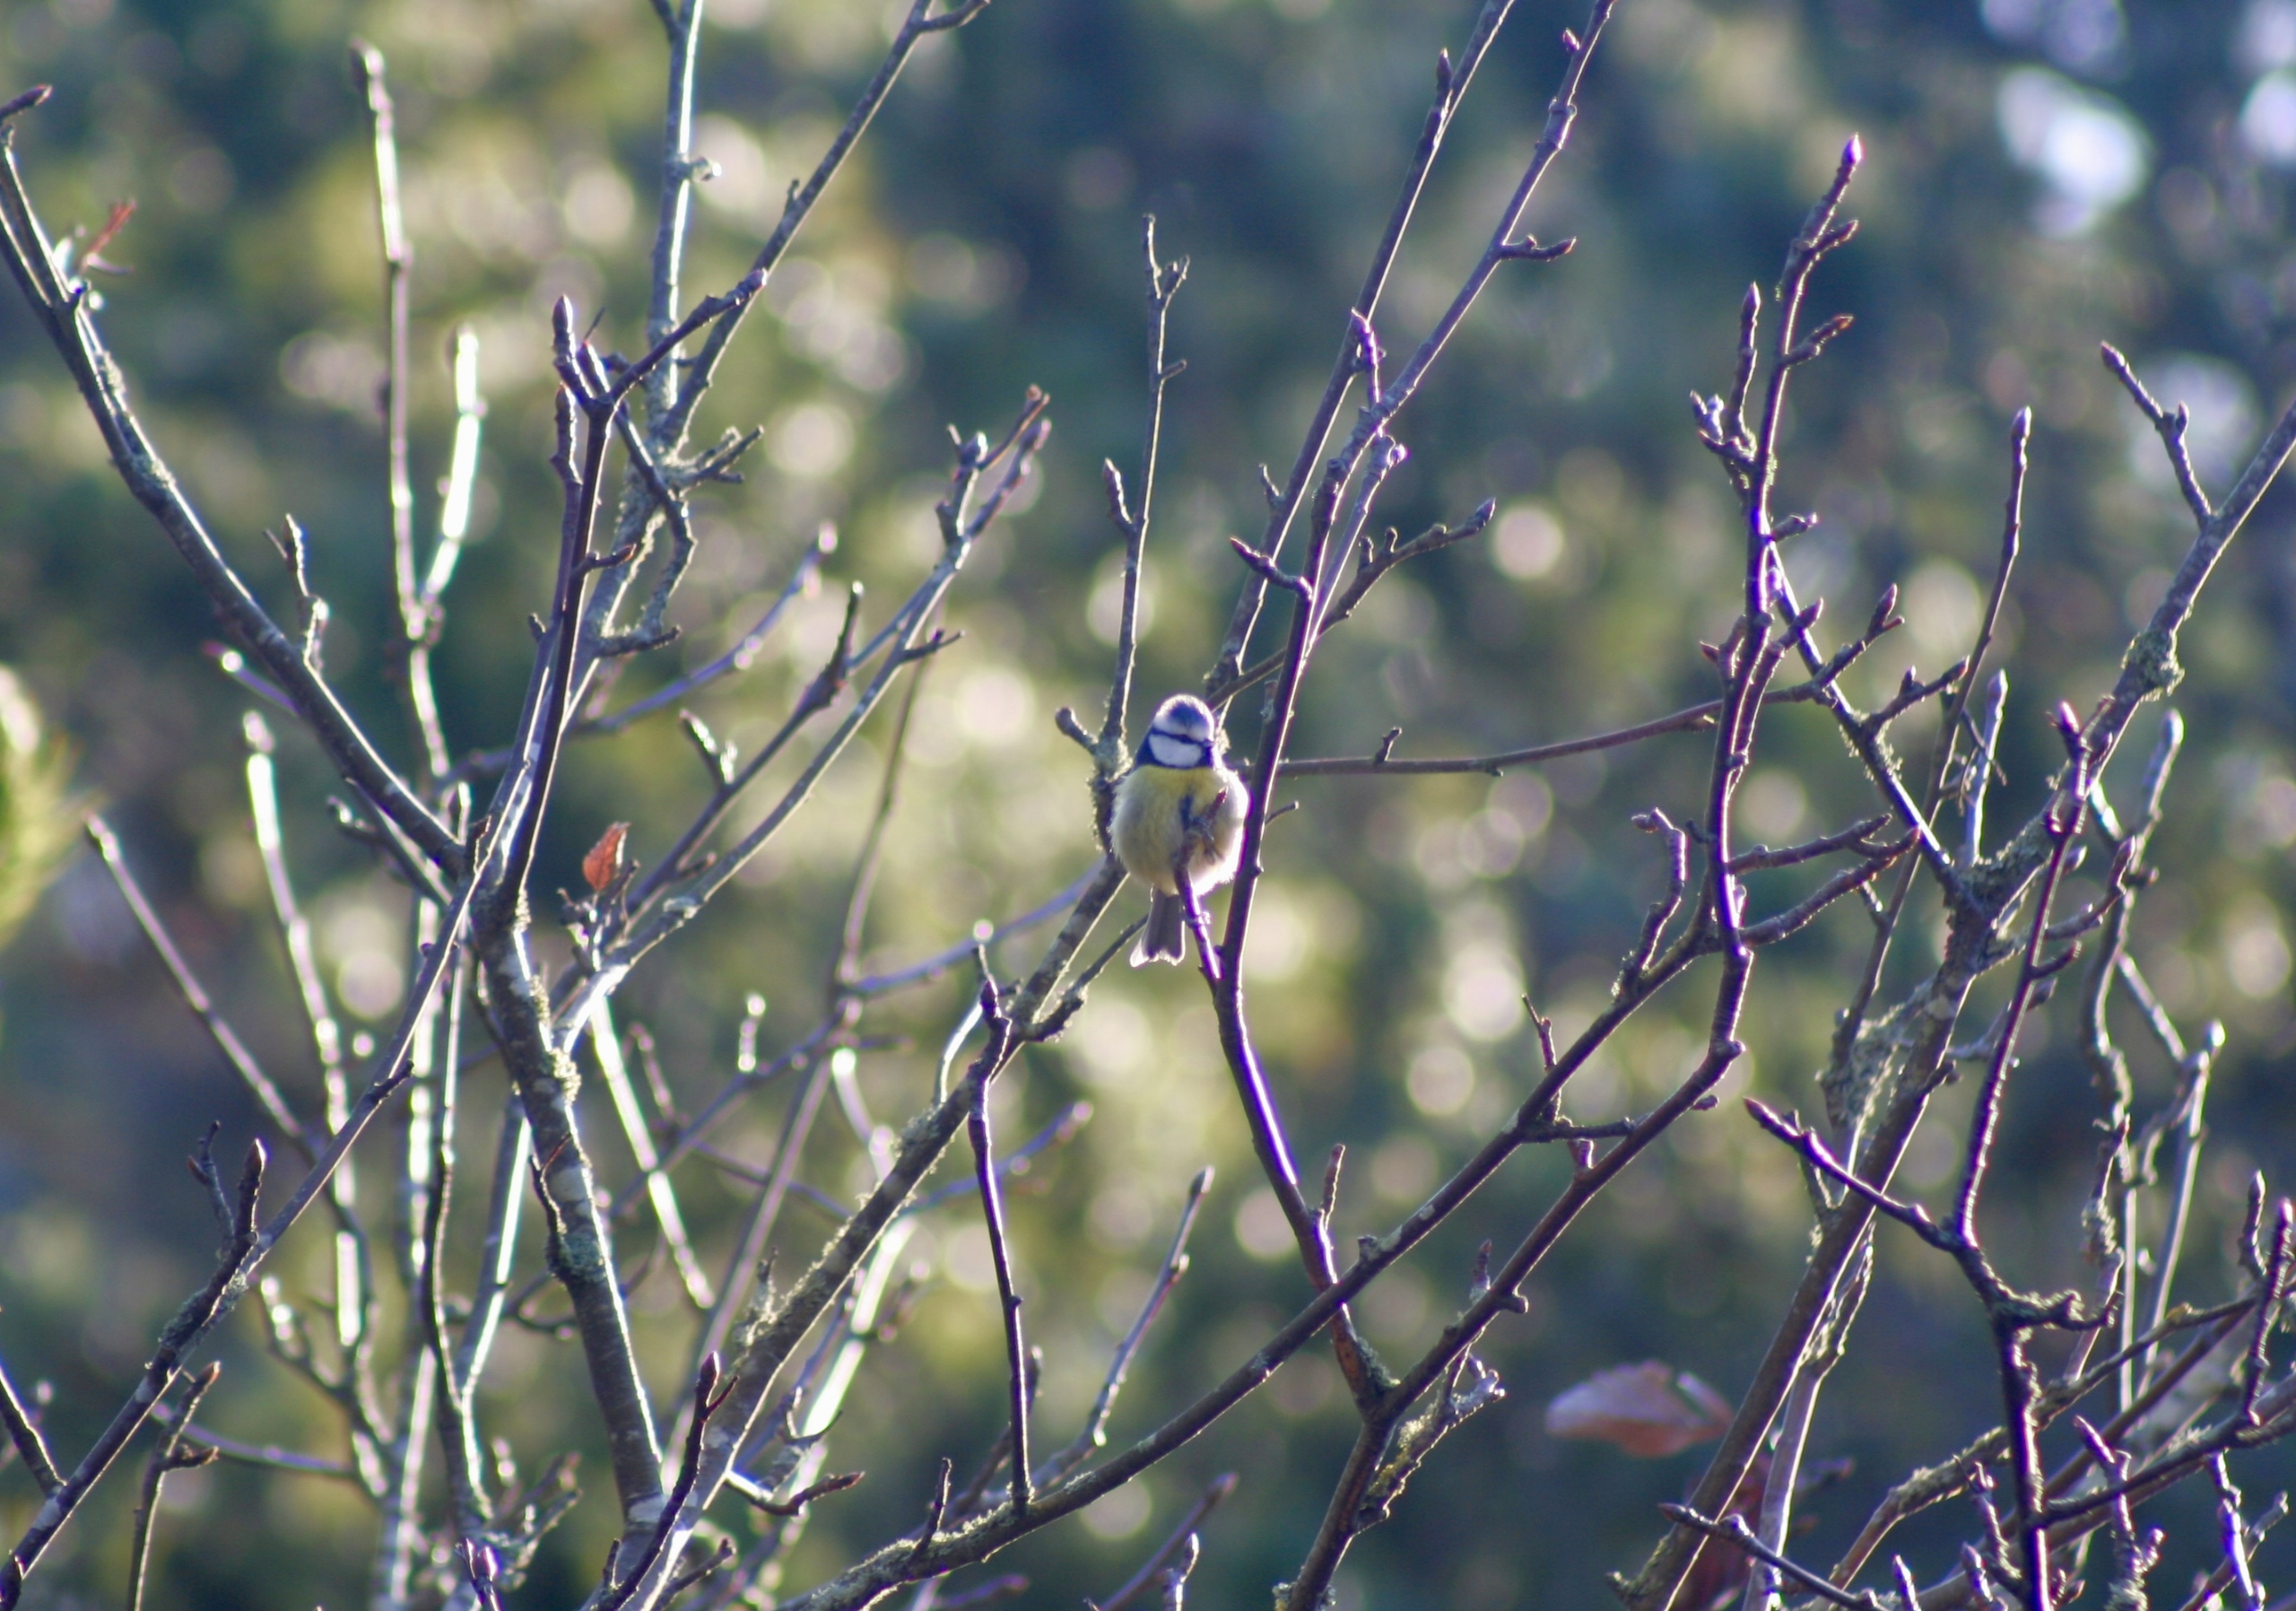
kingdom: Animalia
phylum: Chordata
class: Aves
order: Passeriformes
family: Paridae
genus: Cyanistes
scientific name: Cyanistes caeruleus
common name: Blåmejse
